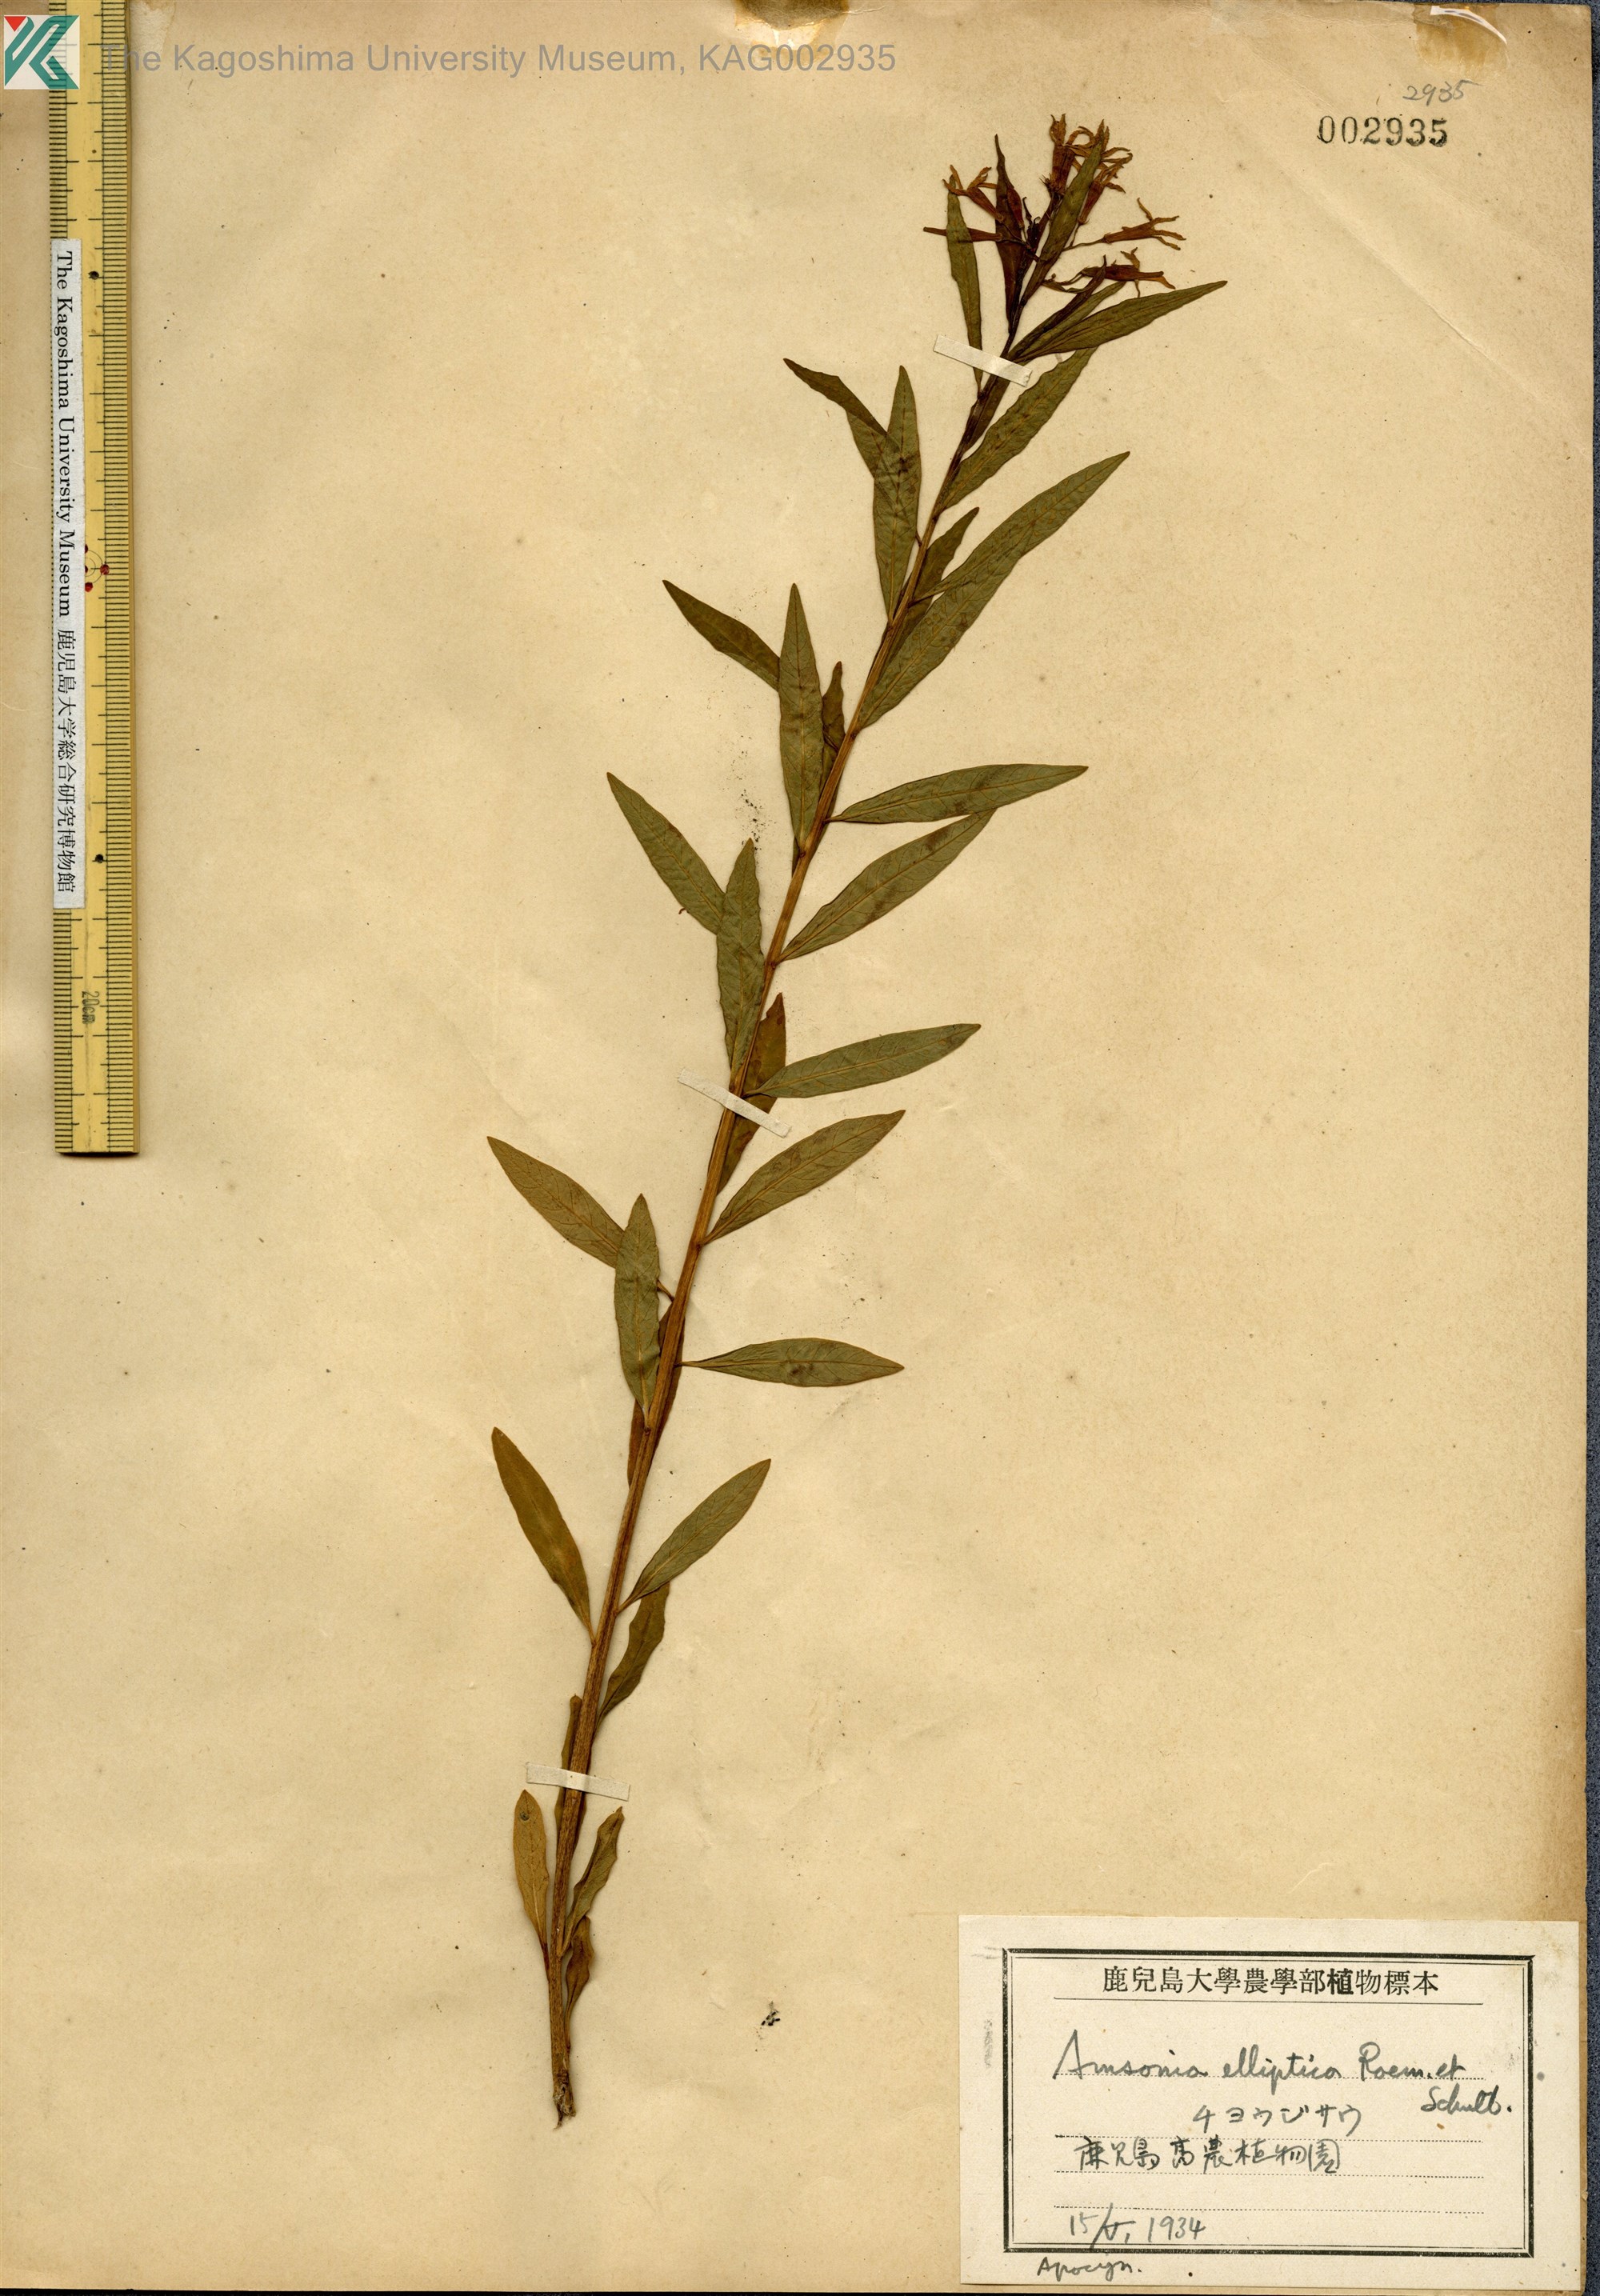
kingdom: Plantae
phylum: Tracheophyta
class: Magnoliopsida
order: Gentianales
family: Apocynaceae
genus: Amsonia
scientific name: Amsonia elliptica
